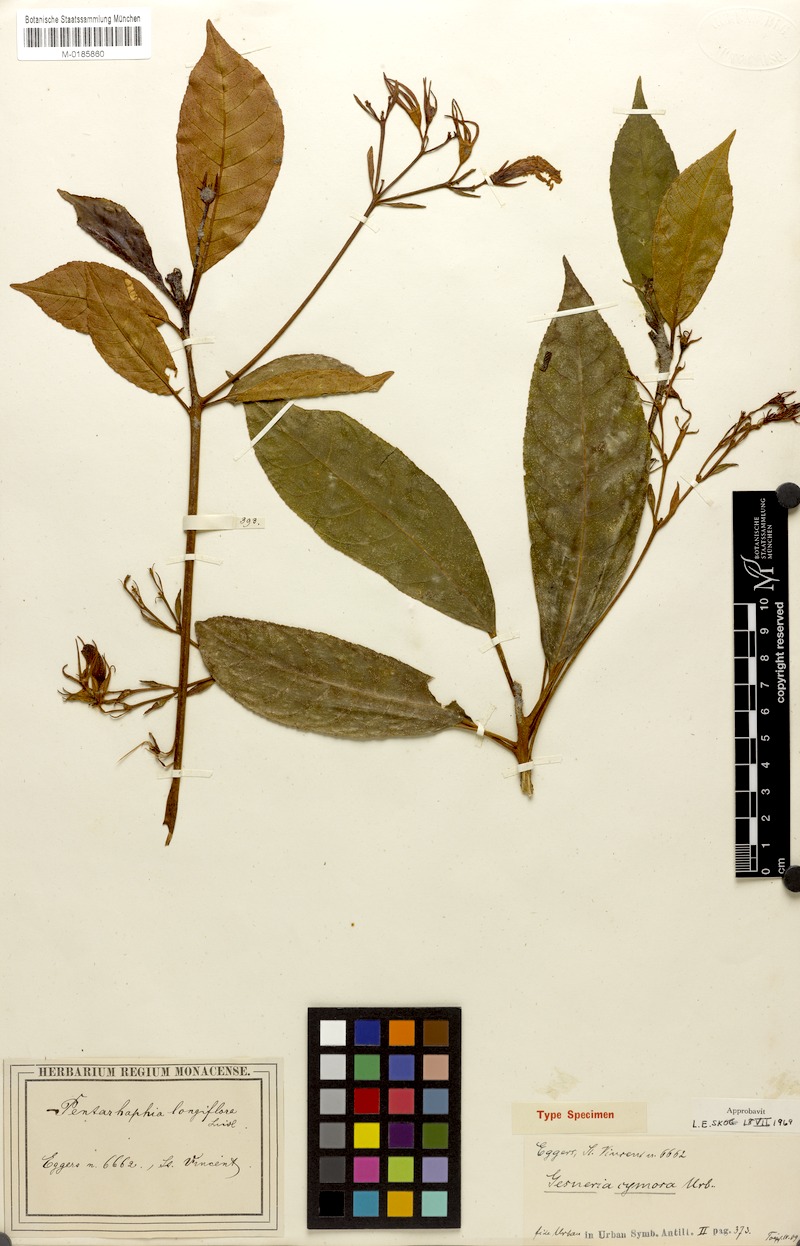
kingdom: Plantae
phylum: Tracheophyta
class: Magnoliopsida
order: Lamiales
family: Gesneriaceae
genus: Gesneria
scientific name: Gesneria ventricosa
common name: Dare meat
